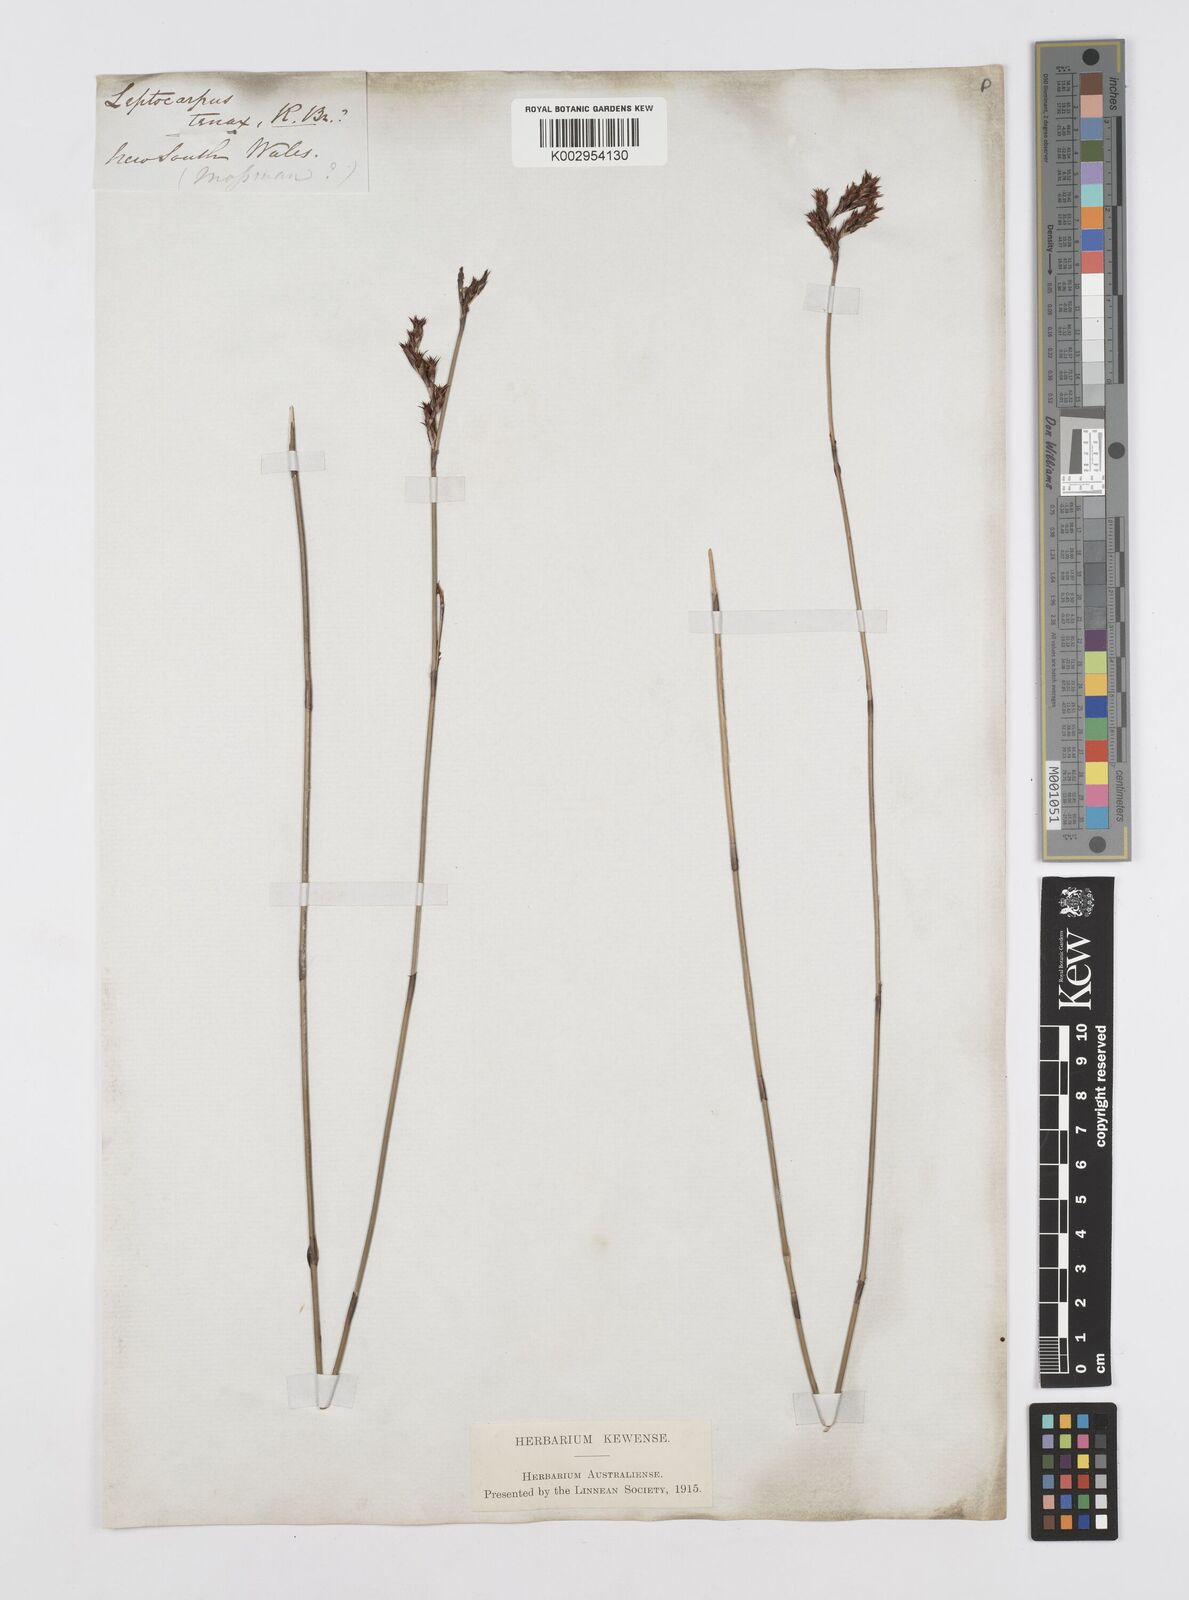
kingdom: Plantae
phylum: Tracheophyta
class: Liliopsida
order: Poales
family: Restionaceae
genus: Leptocarpus
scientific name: Leptocarpus tenax
